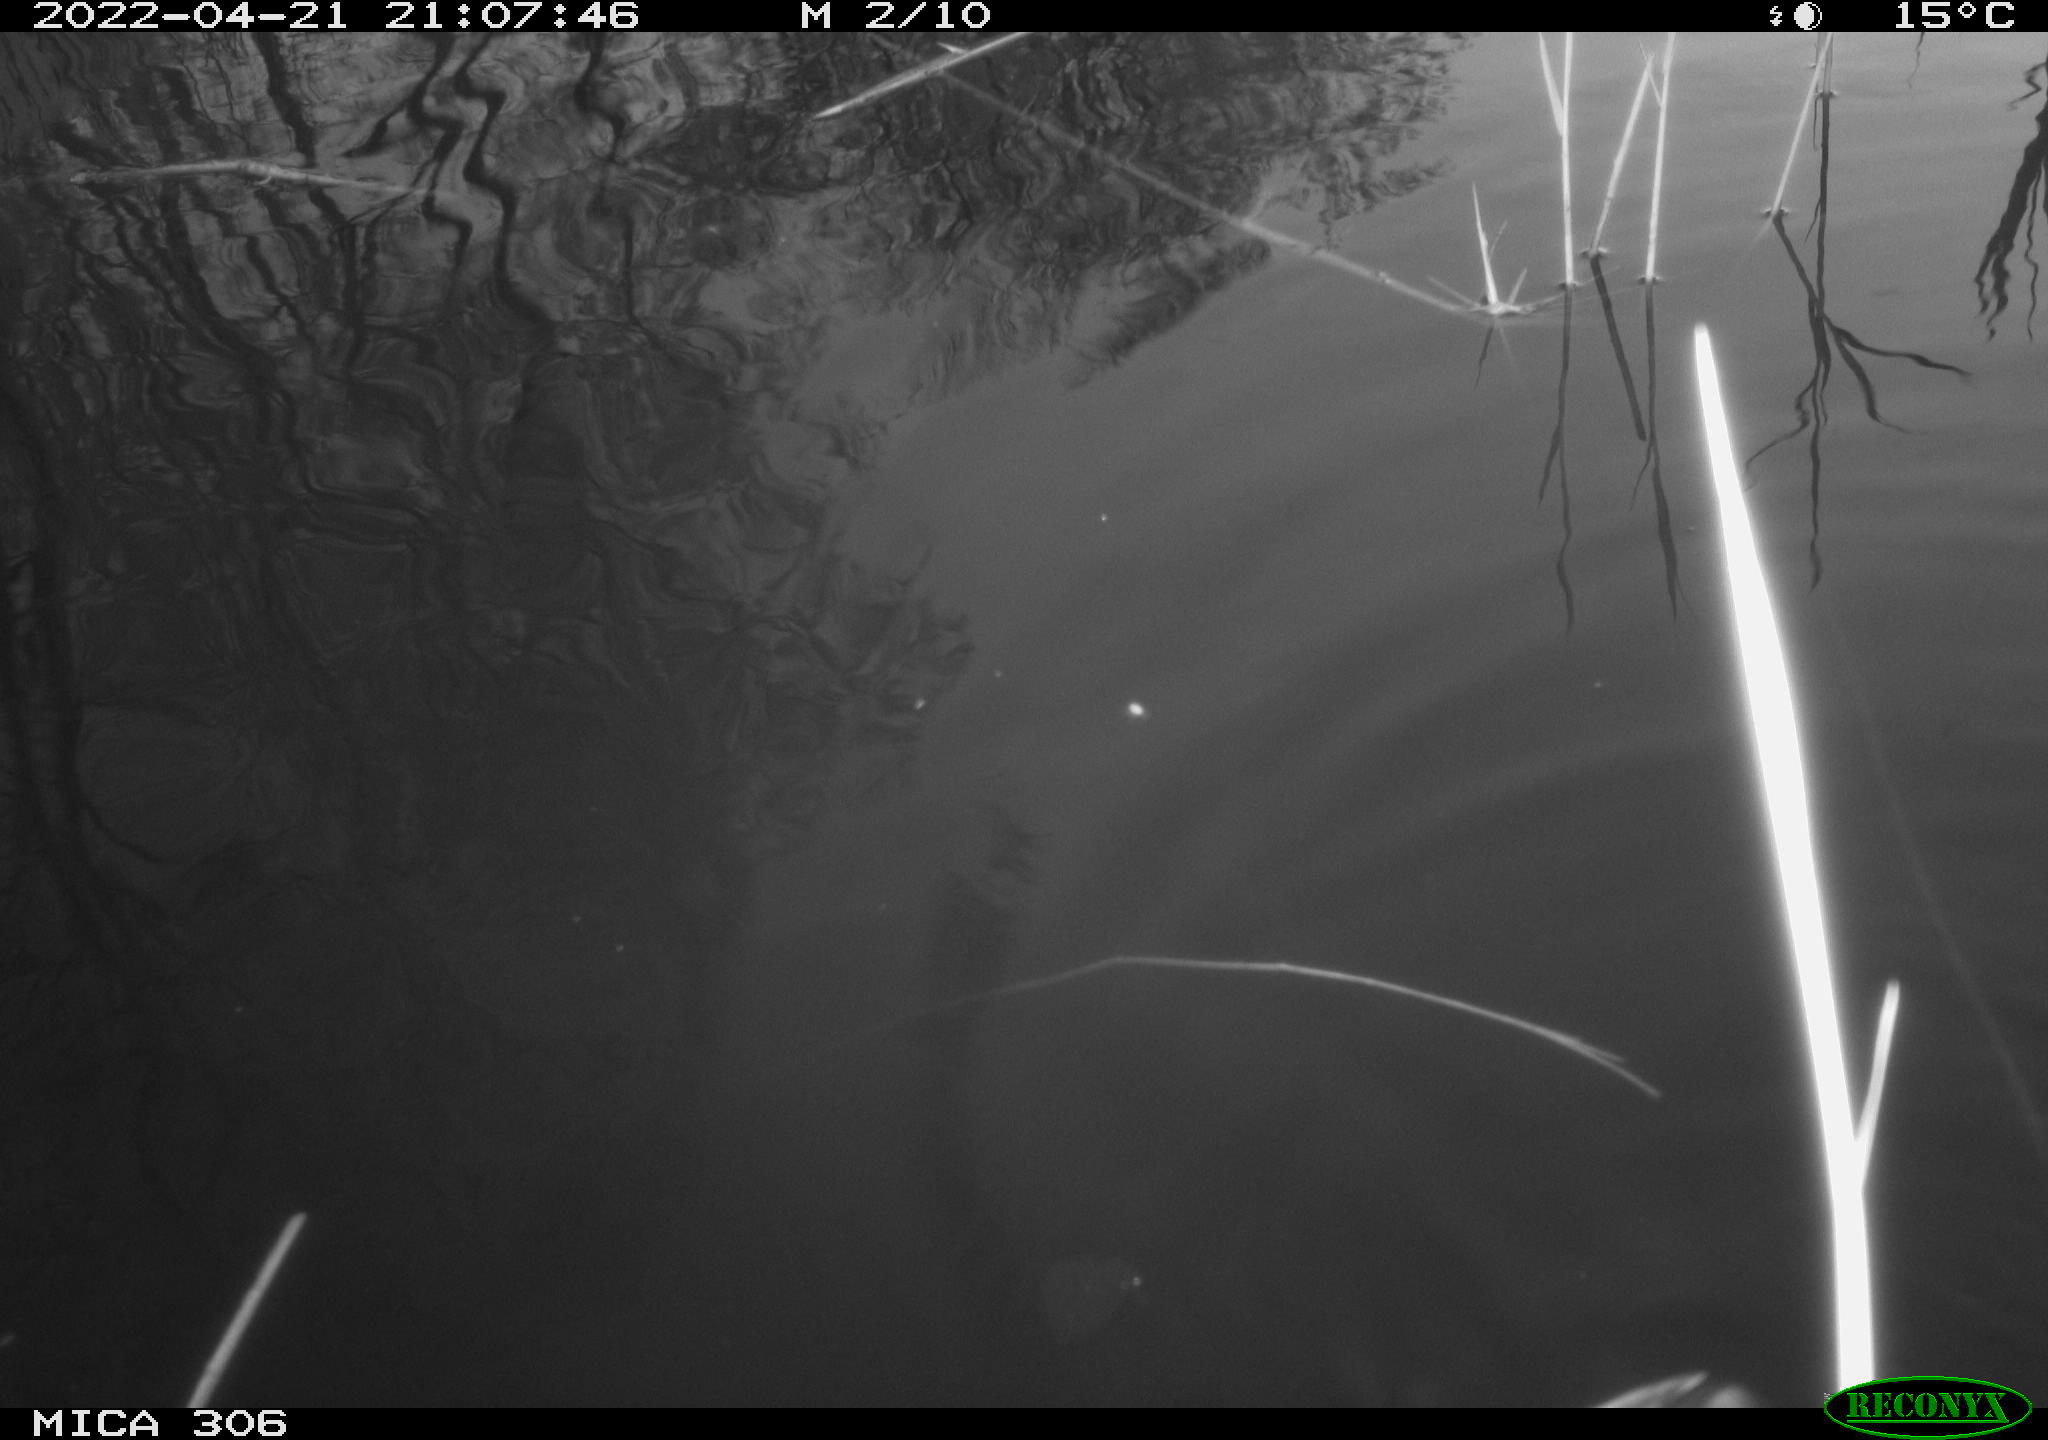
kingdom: Animalia
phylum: Chordata
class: Aves
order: Gruiformes
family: Rallidae
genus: Gallinula
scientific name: Gallinula chloropus
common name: Common moorhen
